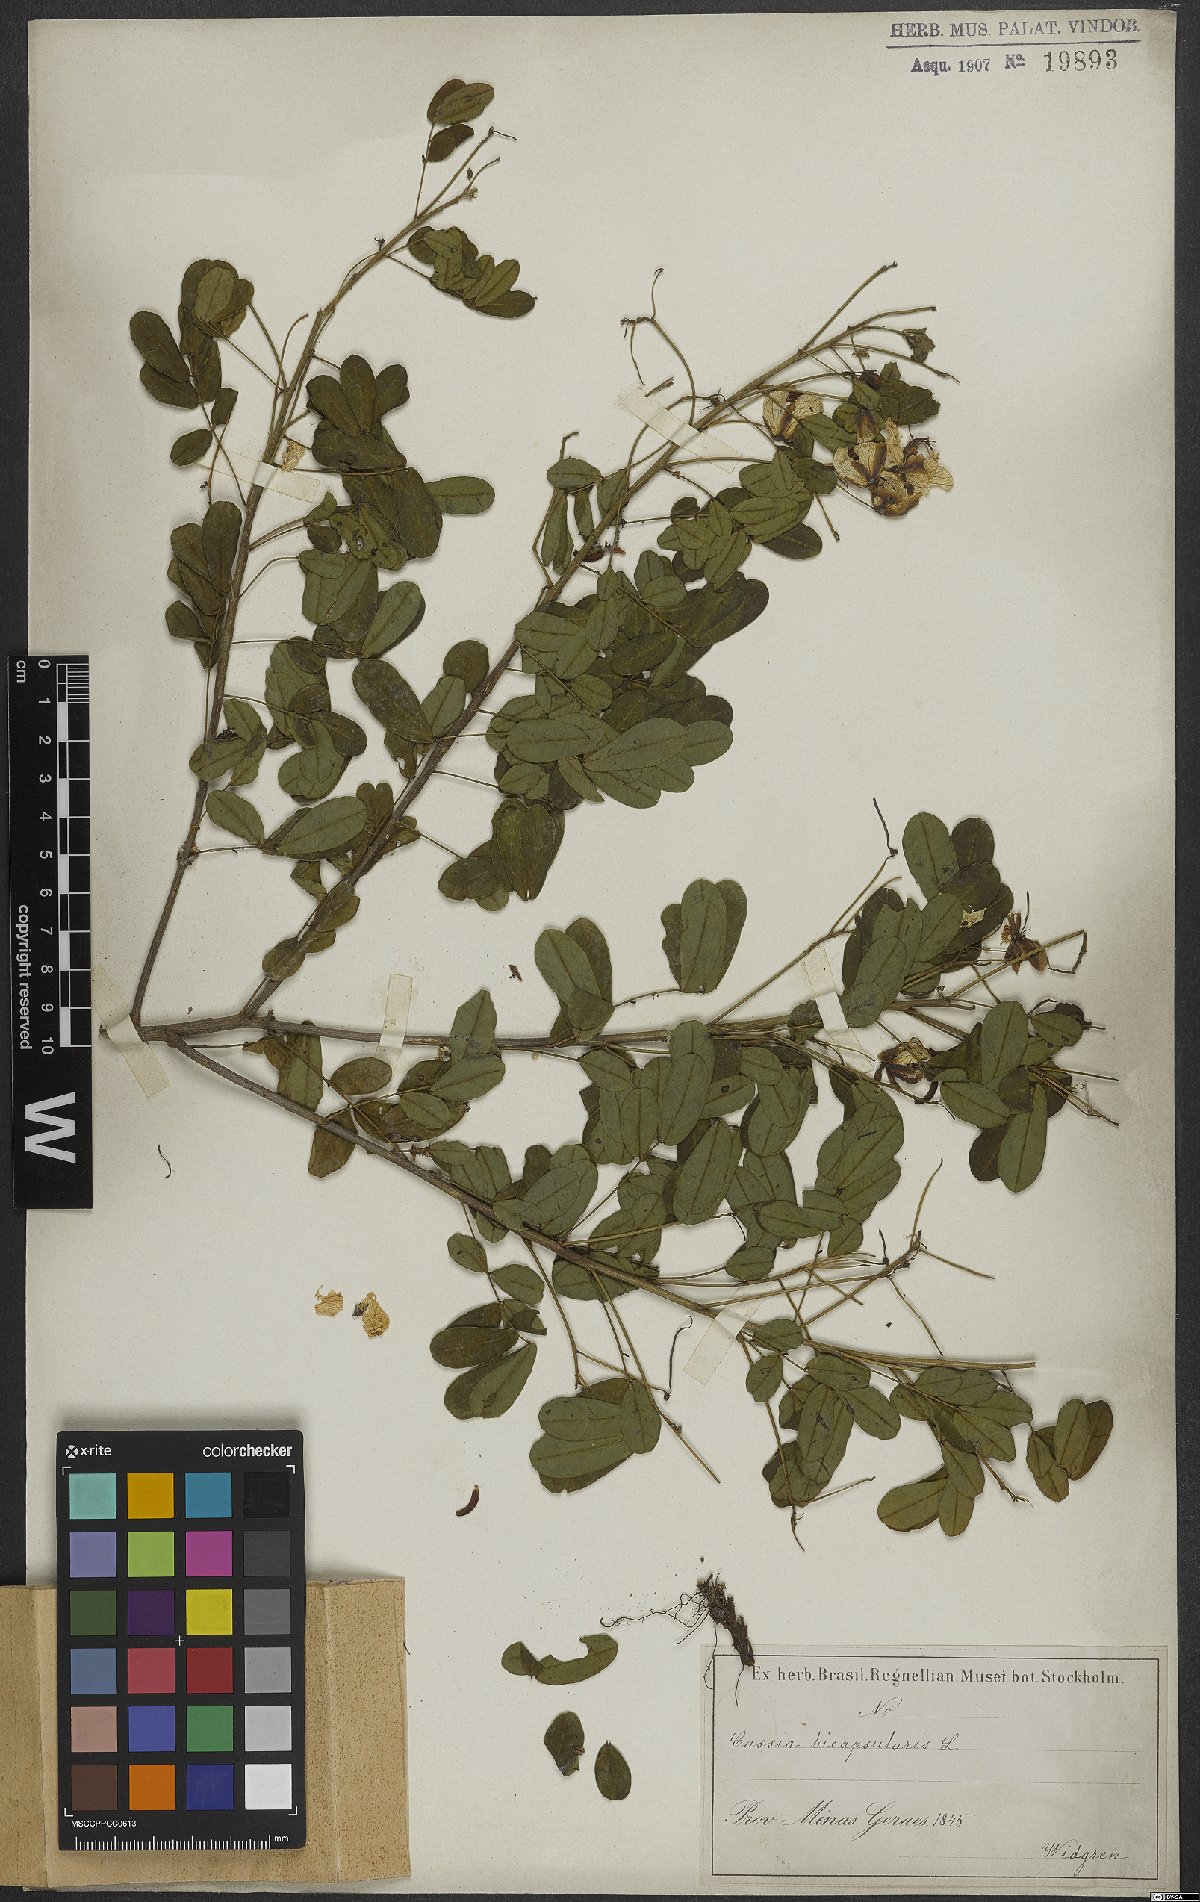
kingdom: Plantae
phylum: Tracheophyta
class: Magnoliopsida
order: Fabales
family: Fabaceae
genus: Senna
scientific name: Senna bicapsularis
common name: Christmasbush
